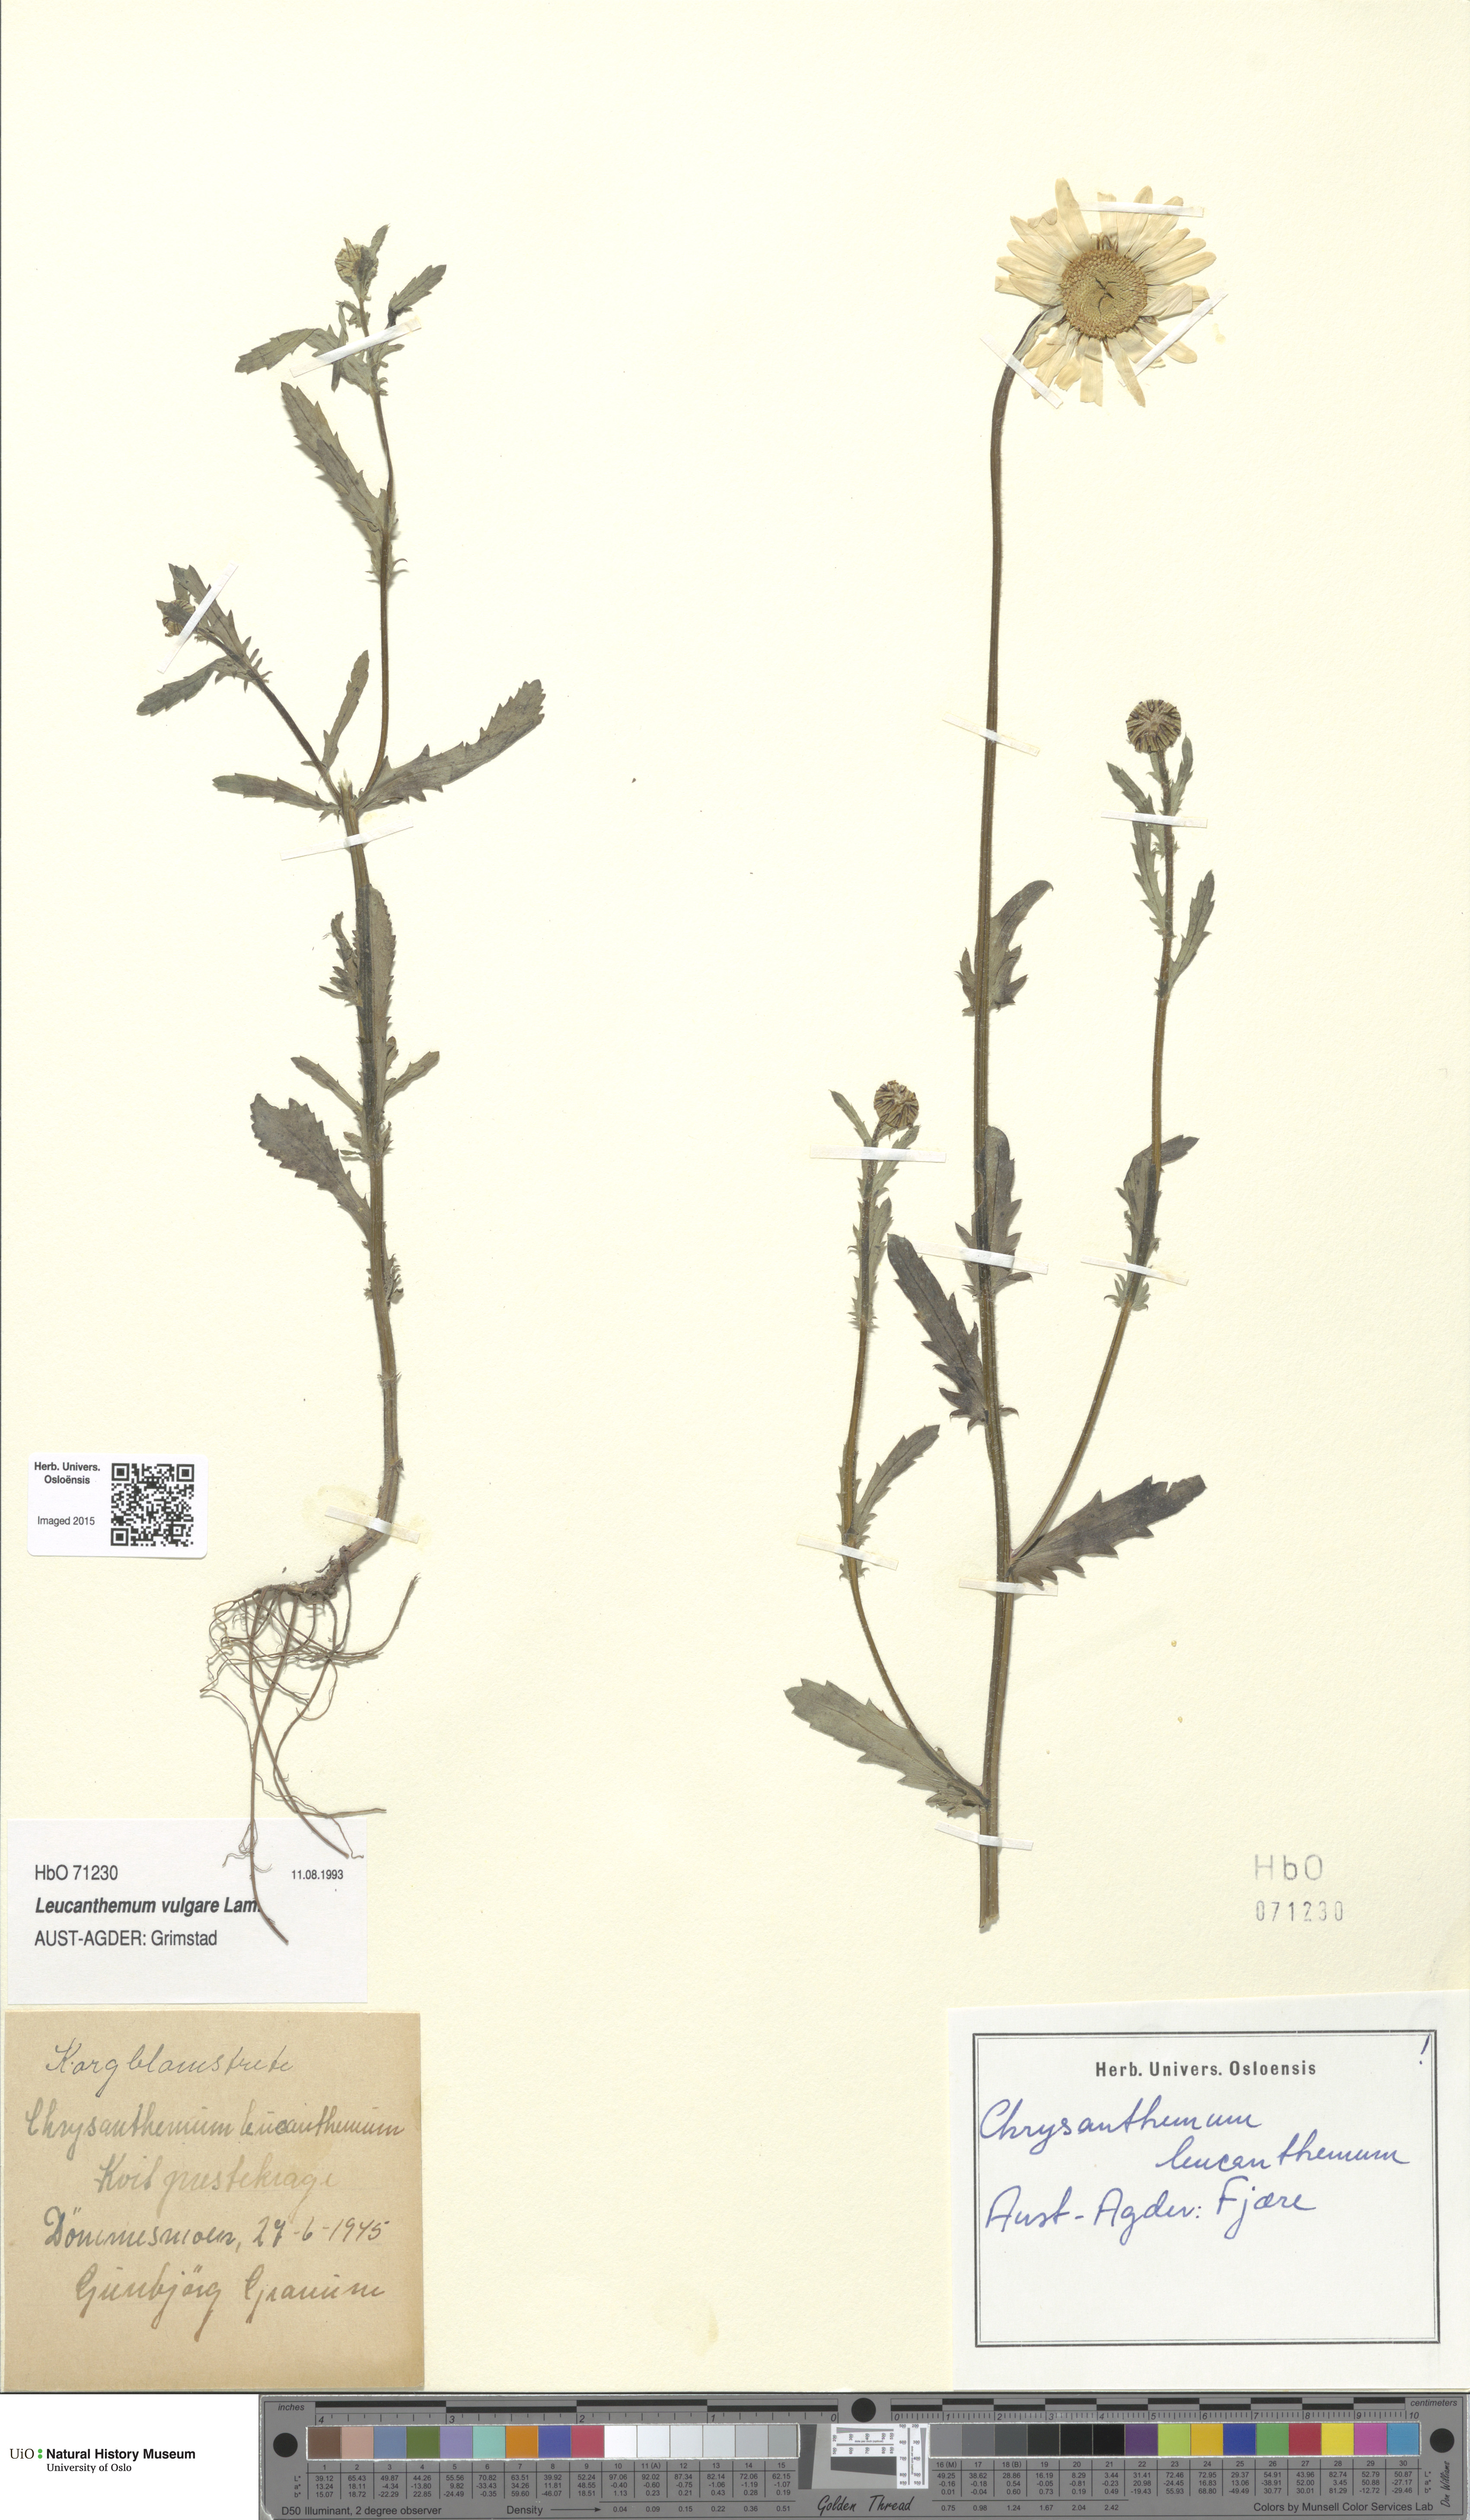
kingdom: Plantae
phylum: Tracheophyta
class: Magnoliopsida
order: Asterales
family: Asteraceae
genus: Leucanthemum
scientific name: Leucanthemum vulgare
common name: Oxeye daisy
